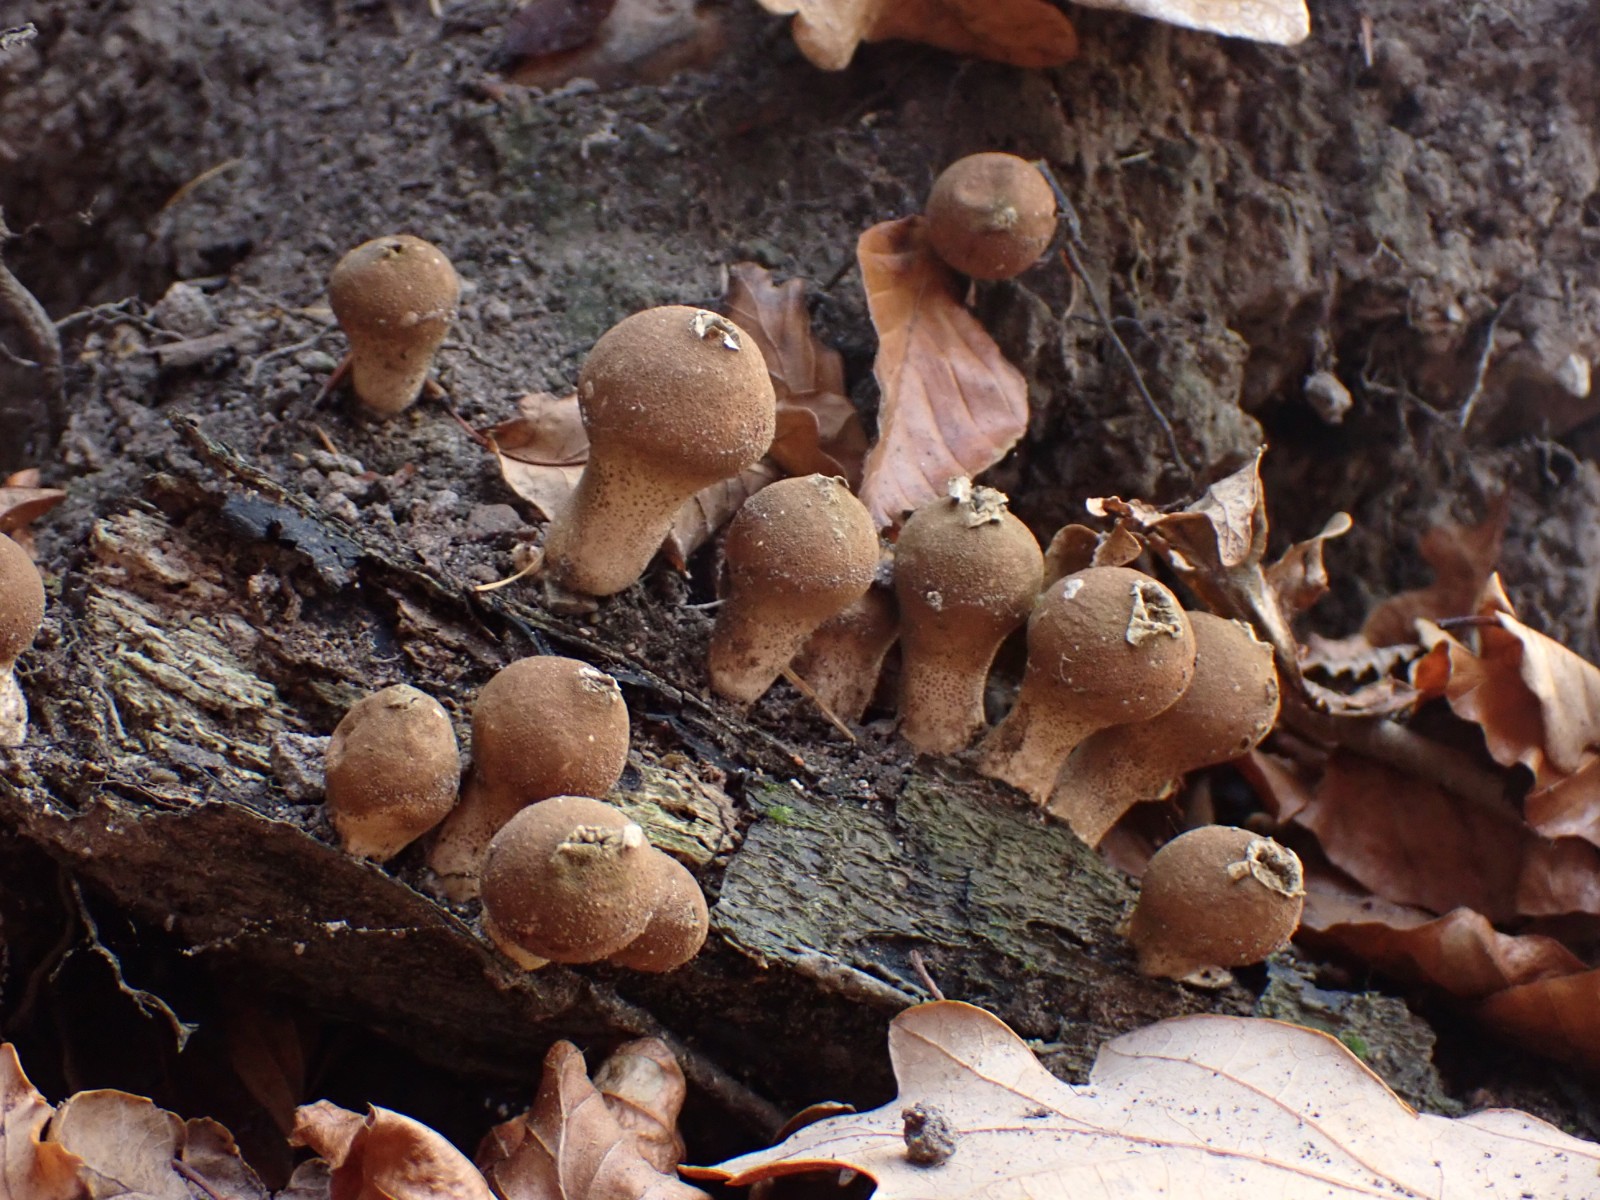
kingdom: Fungi
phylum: Basidiomycota
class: Agaricomycetes
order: Agaricales
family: Lycoperdaceae
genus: Apioperdon
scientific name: Apioperdon pyriforme
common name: pære-støvbold
